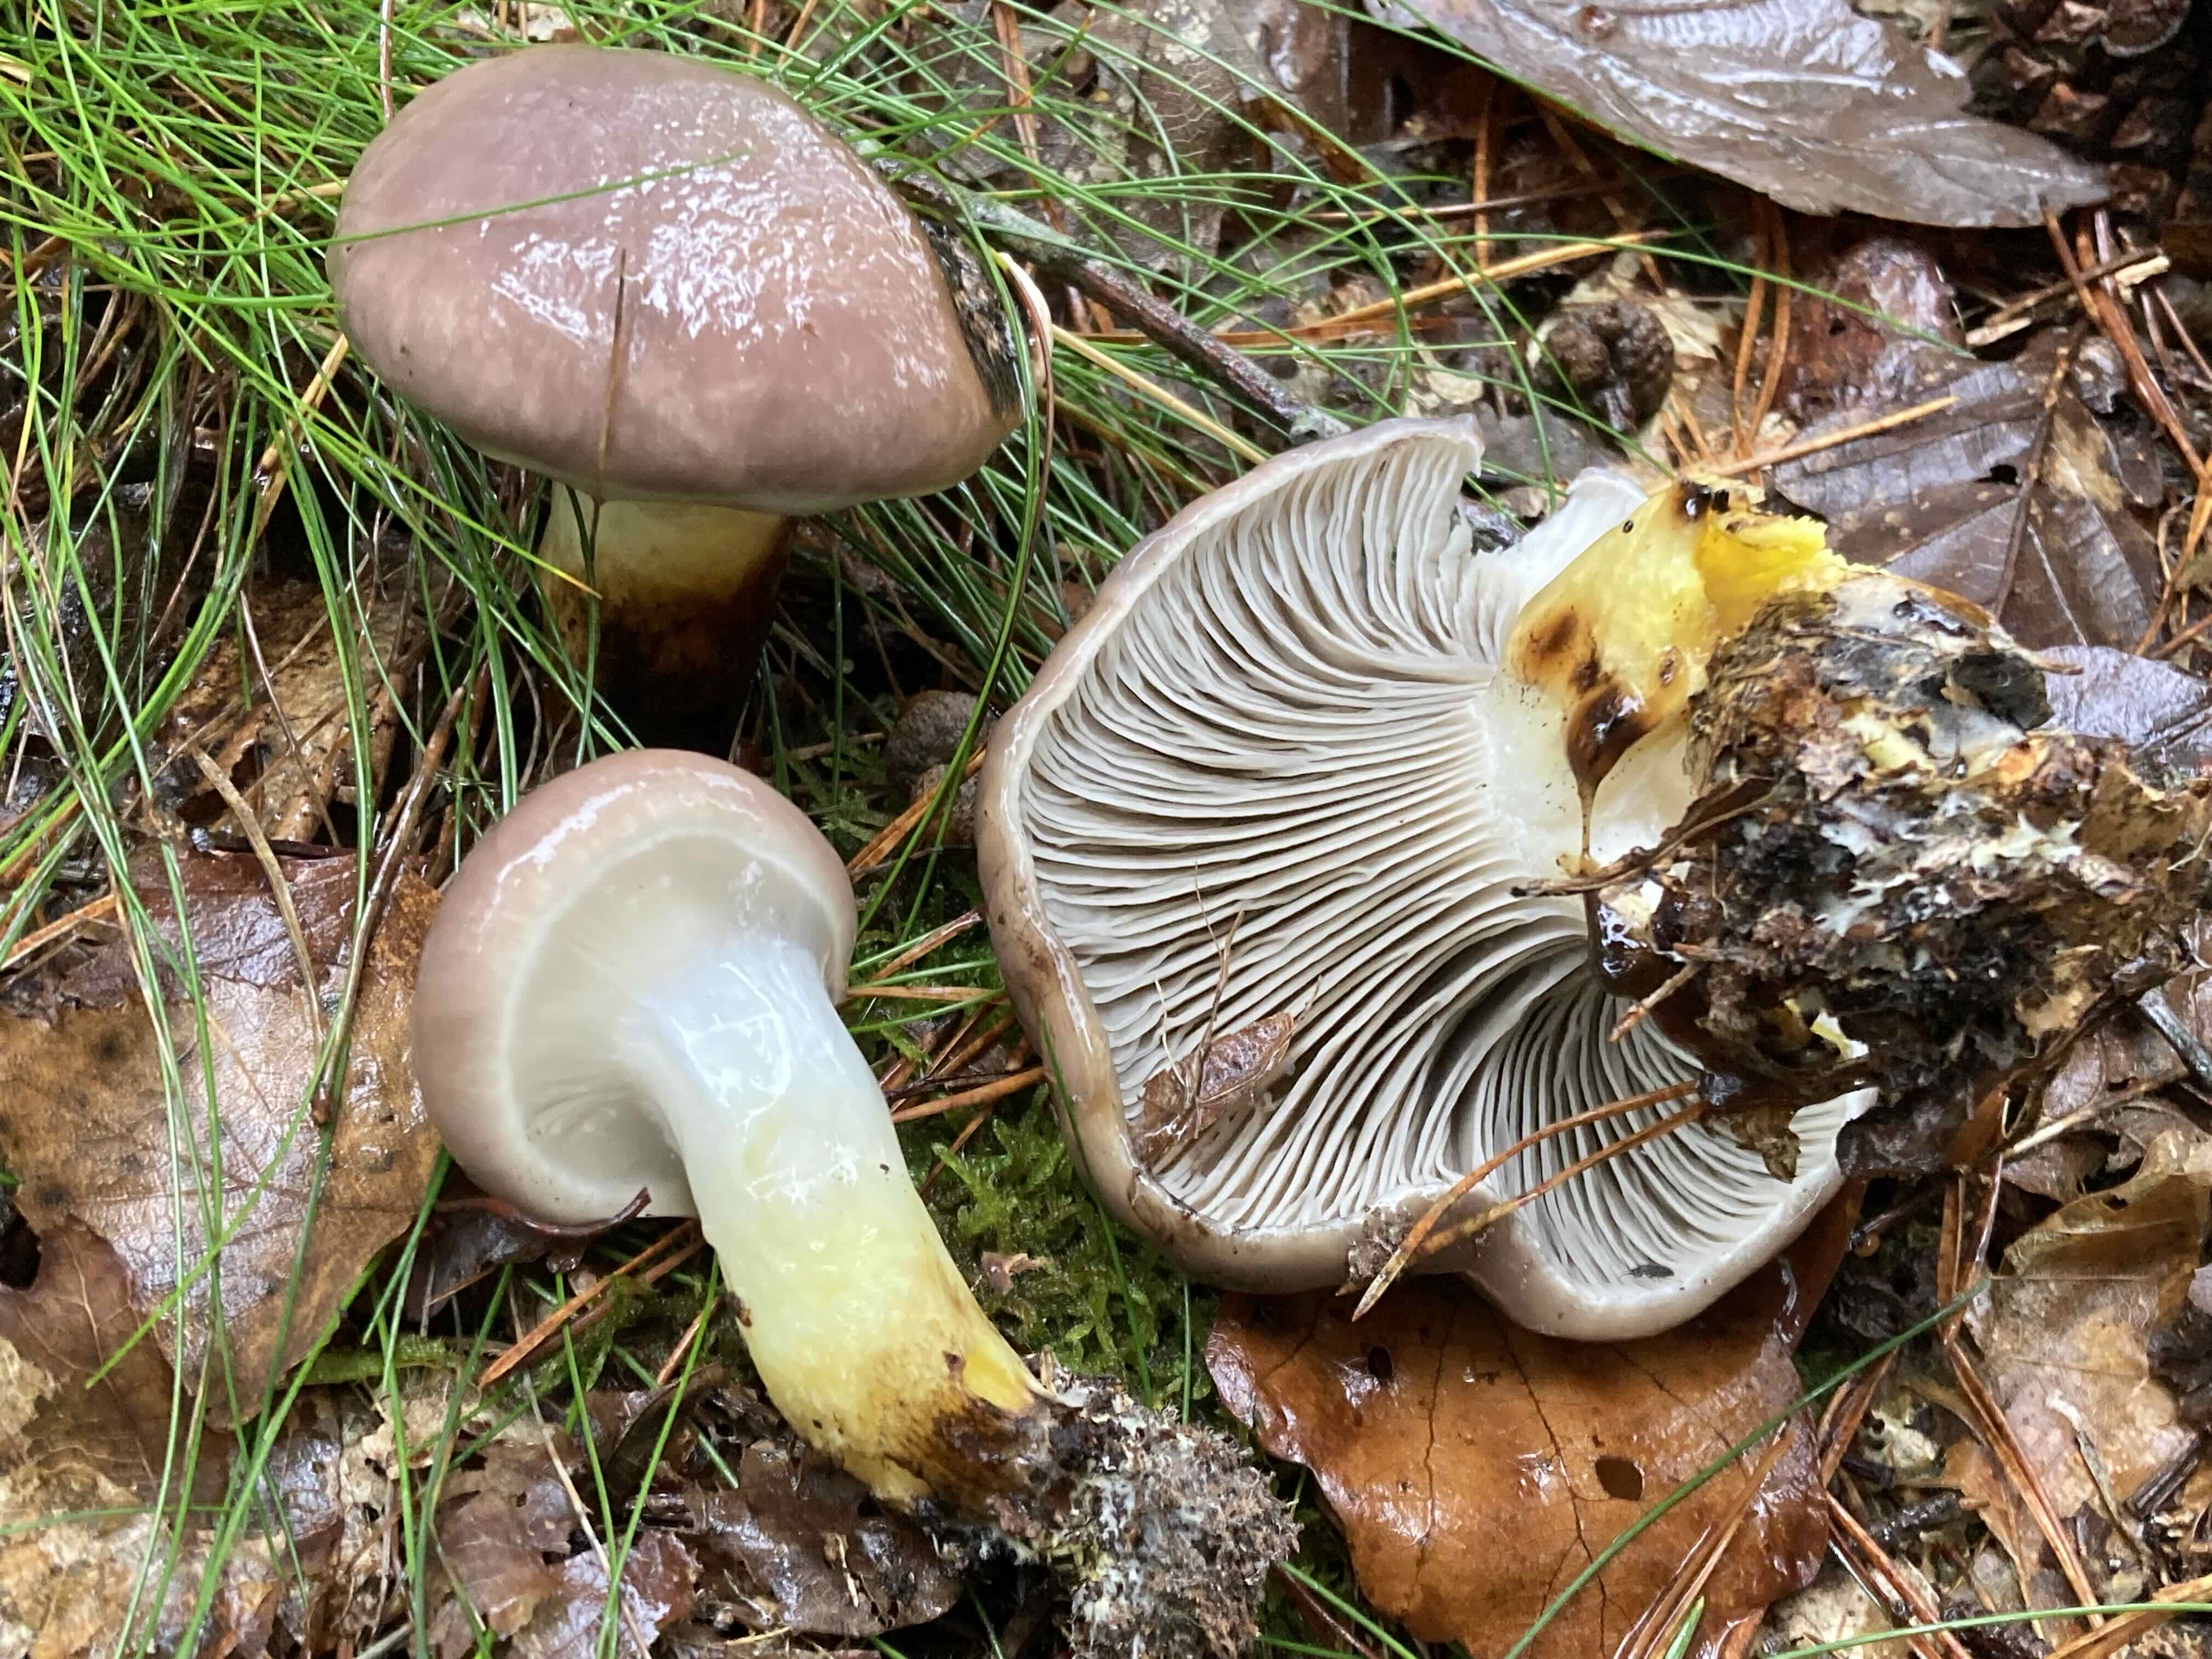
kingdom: Fungi
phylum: Basidiomycota
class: Agaricomycetes
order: Boletales
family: Gomphidiaceae
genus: Gomphidius
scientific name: Gomphidius glutinosus
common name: grå slimslør
